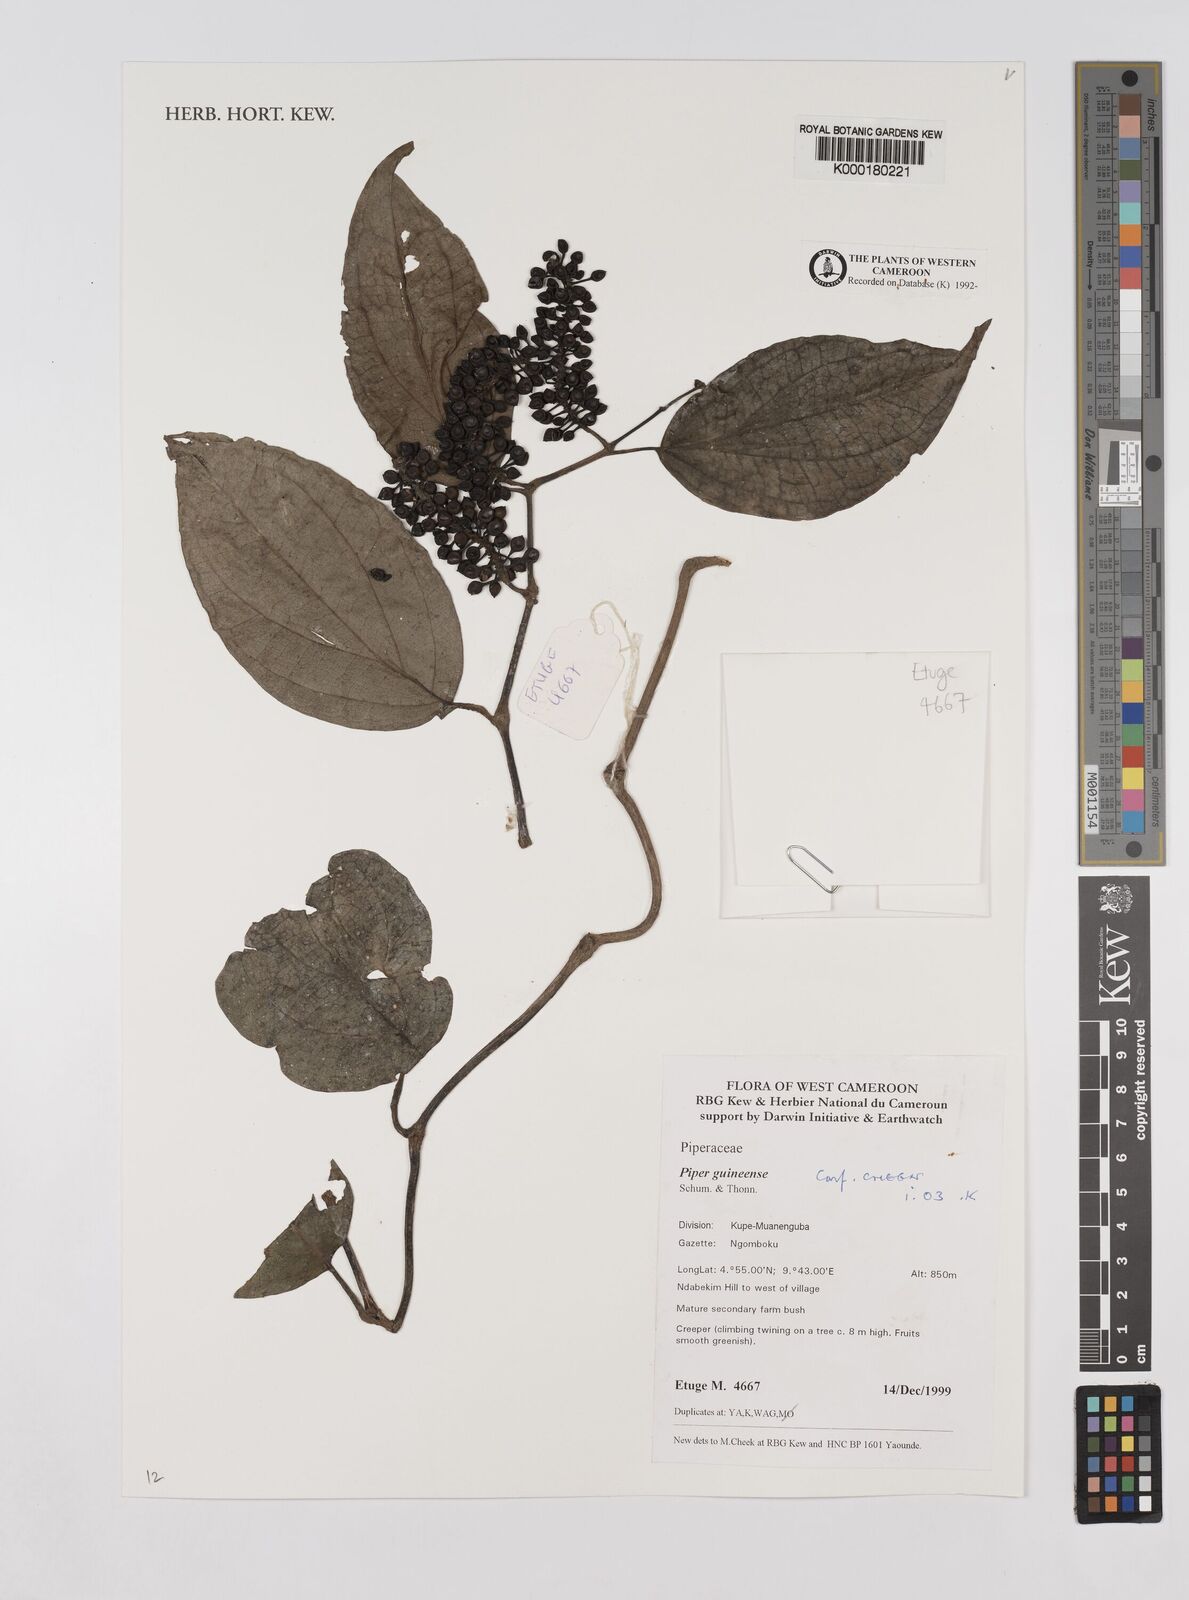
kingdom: Plantae
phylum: Tracheophyta
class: Magnoliopsida
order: Piperales
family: Piperaceae
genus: Piper
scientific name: Piper guineense
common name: Benin pepper
